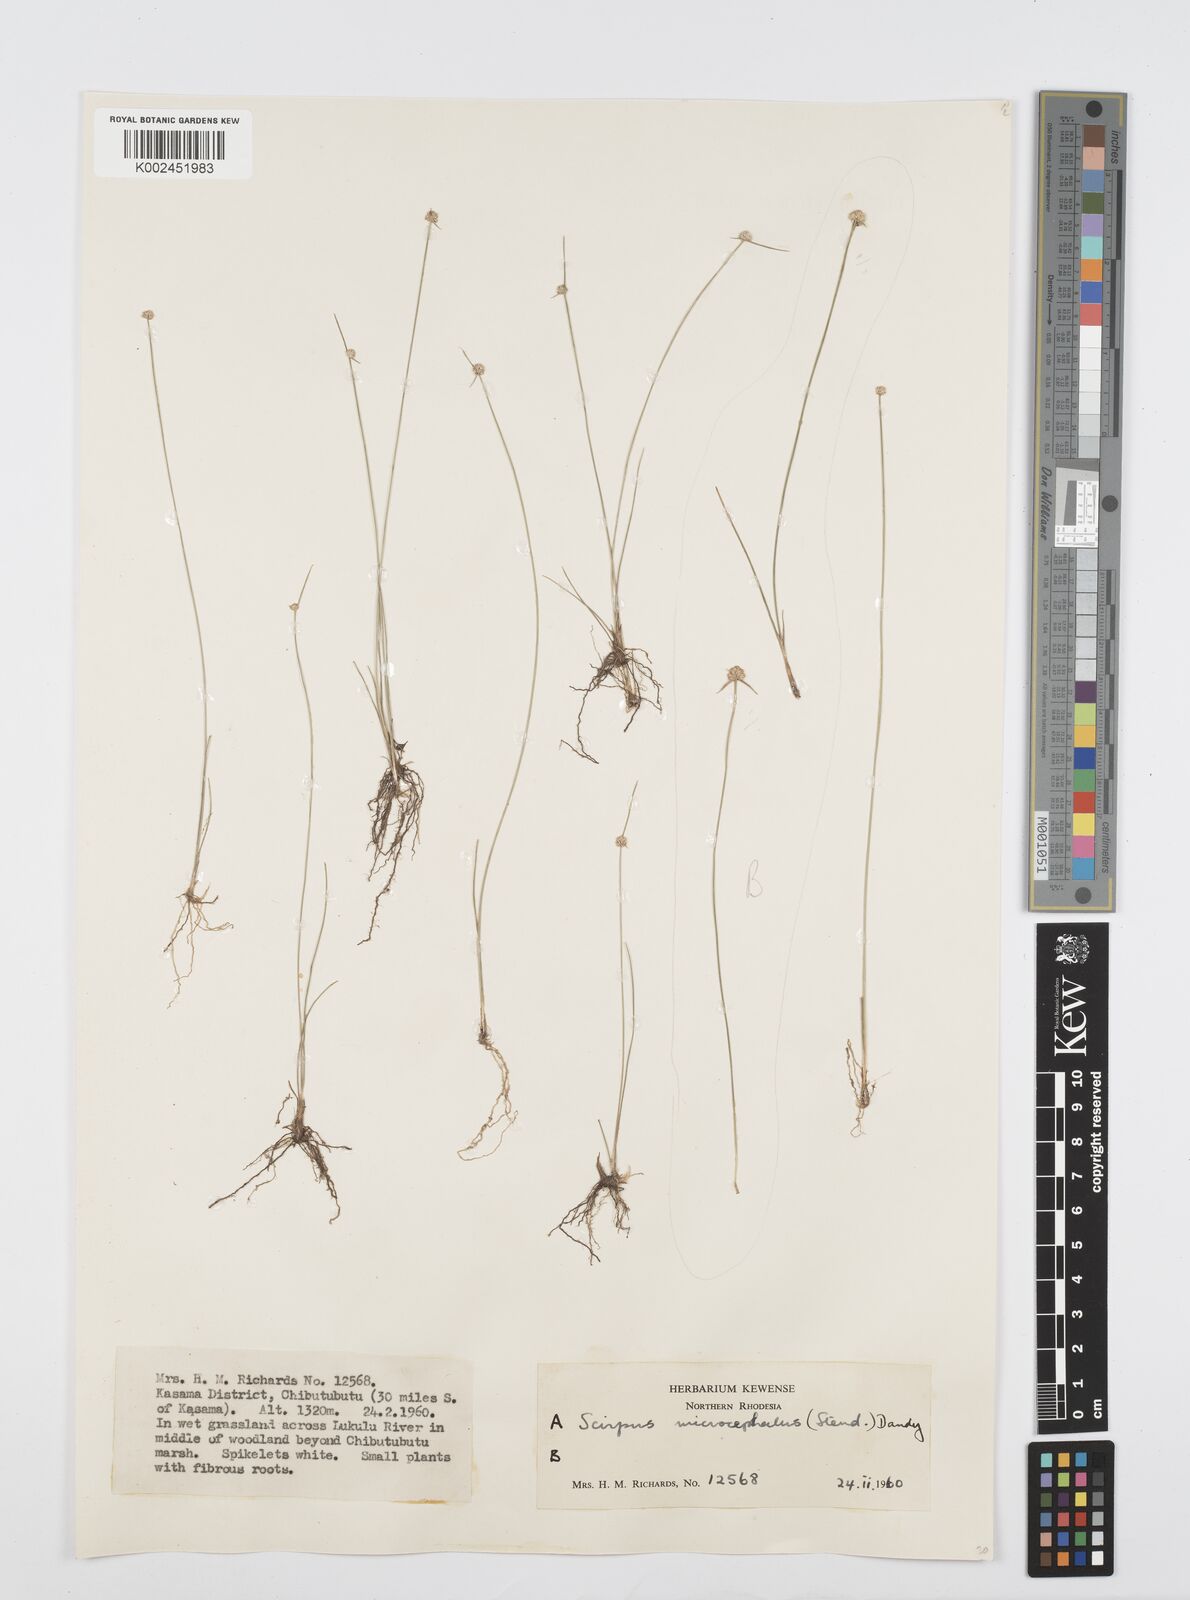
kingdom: Plantae
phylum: Tracheophyta
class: Liliopsida
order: Poales
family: Cyperaceae
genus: Cyperus
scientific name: Cyperus microcephalus
